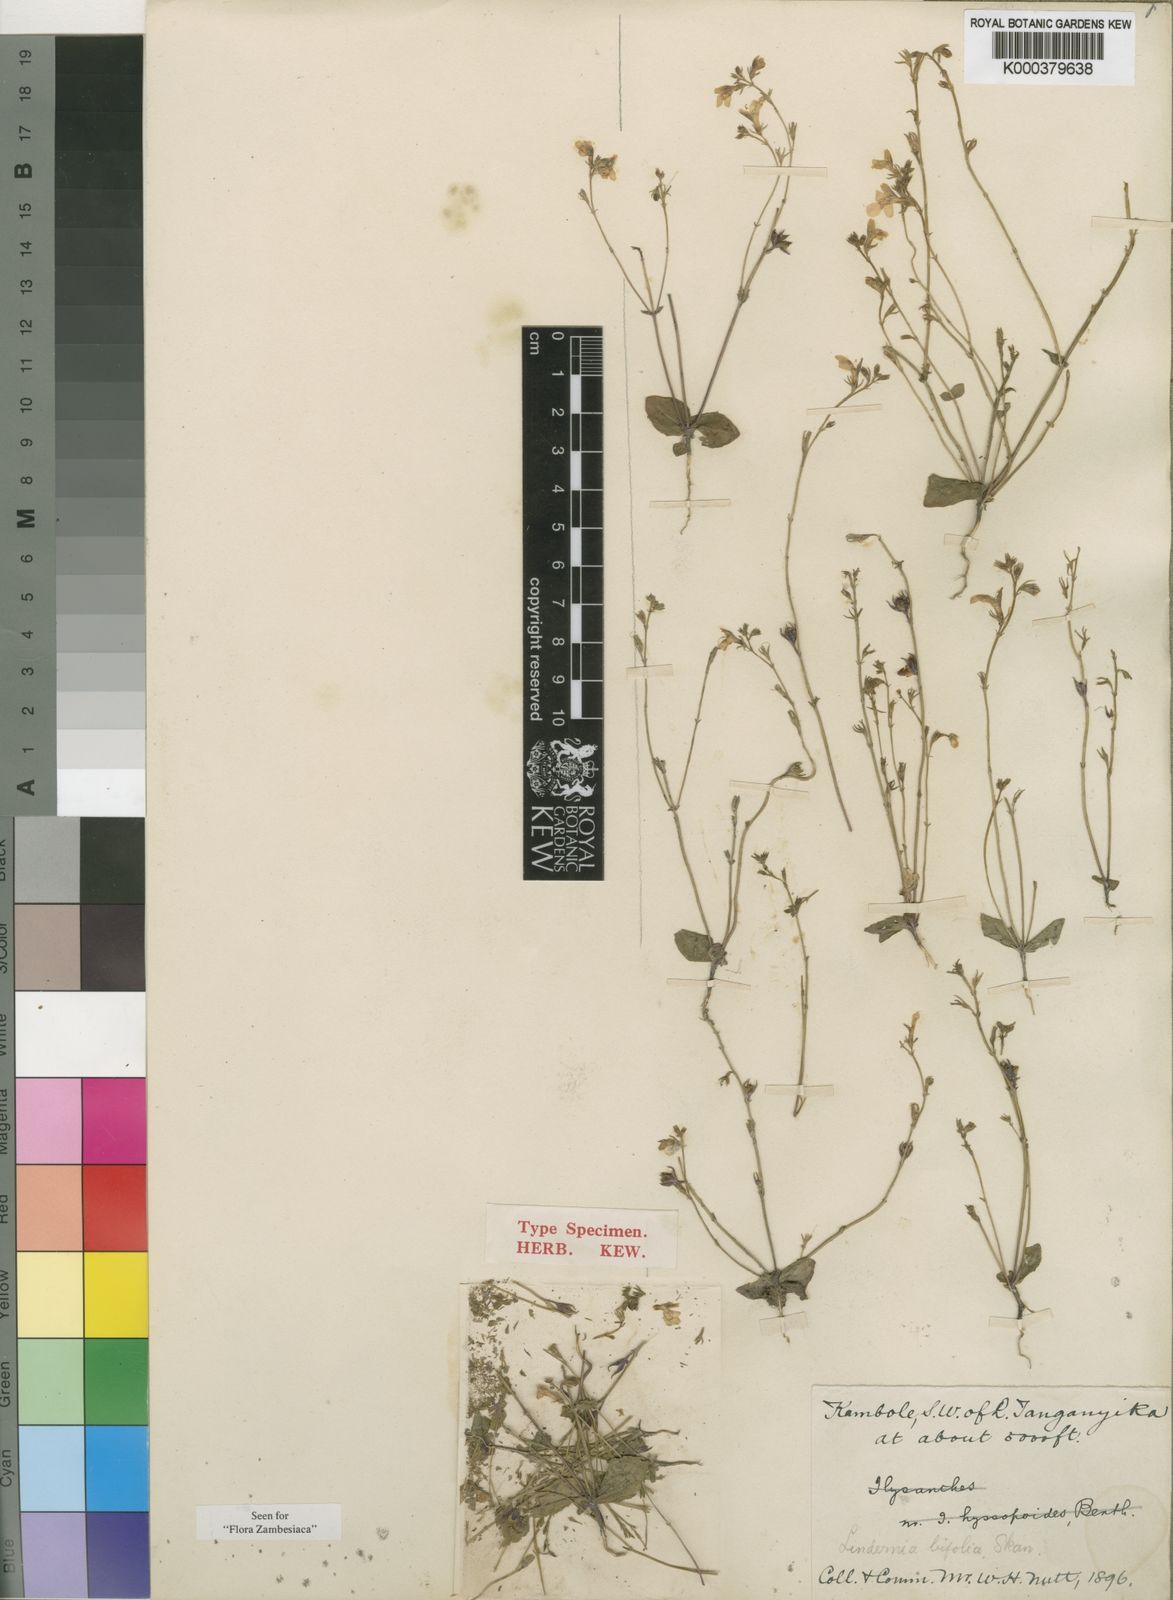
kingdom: Plantae
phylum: Tracheophyta
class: Magnoliopsida
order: Lamiales
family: Linderniaceae
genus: Crepidorhopalon
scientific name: Crepidorhopalon bifolius
